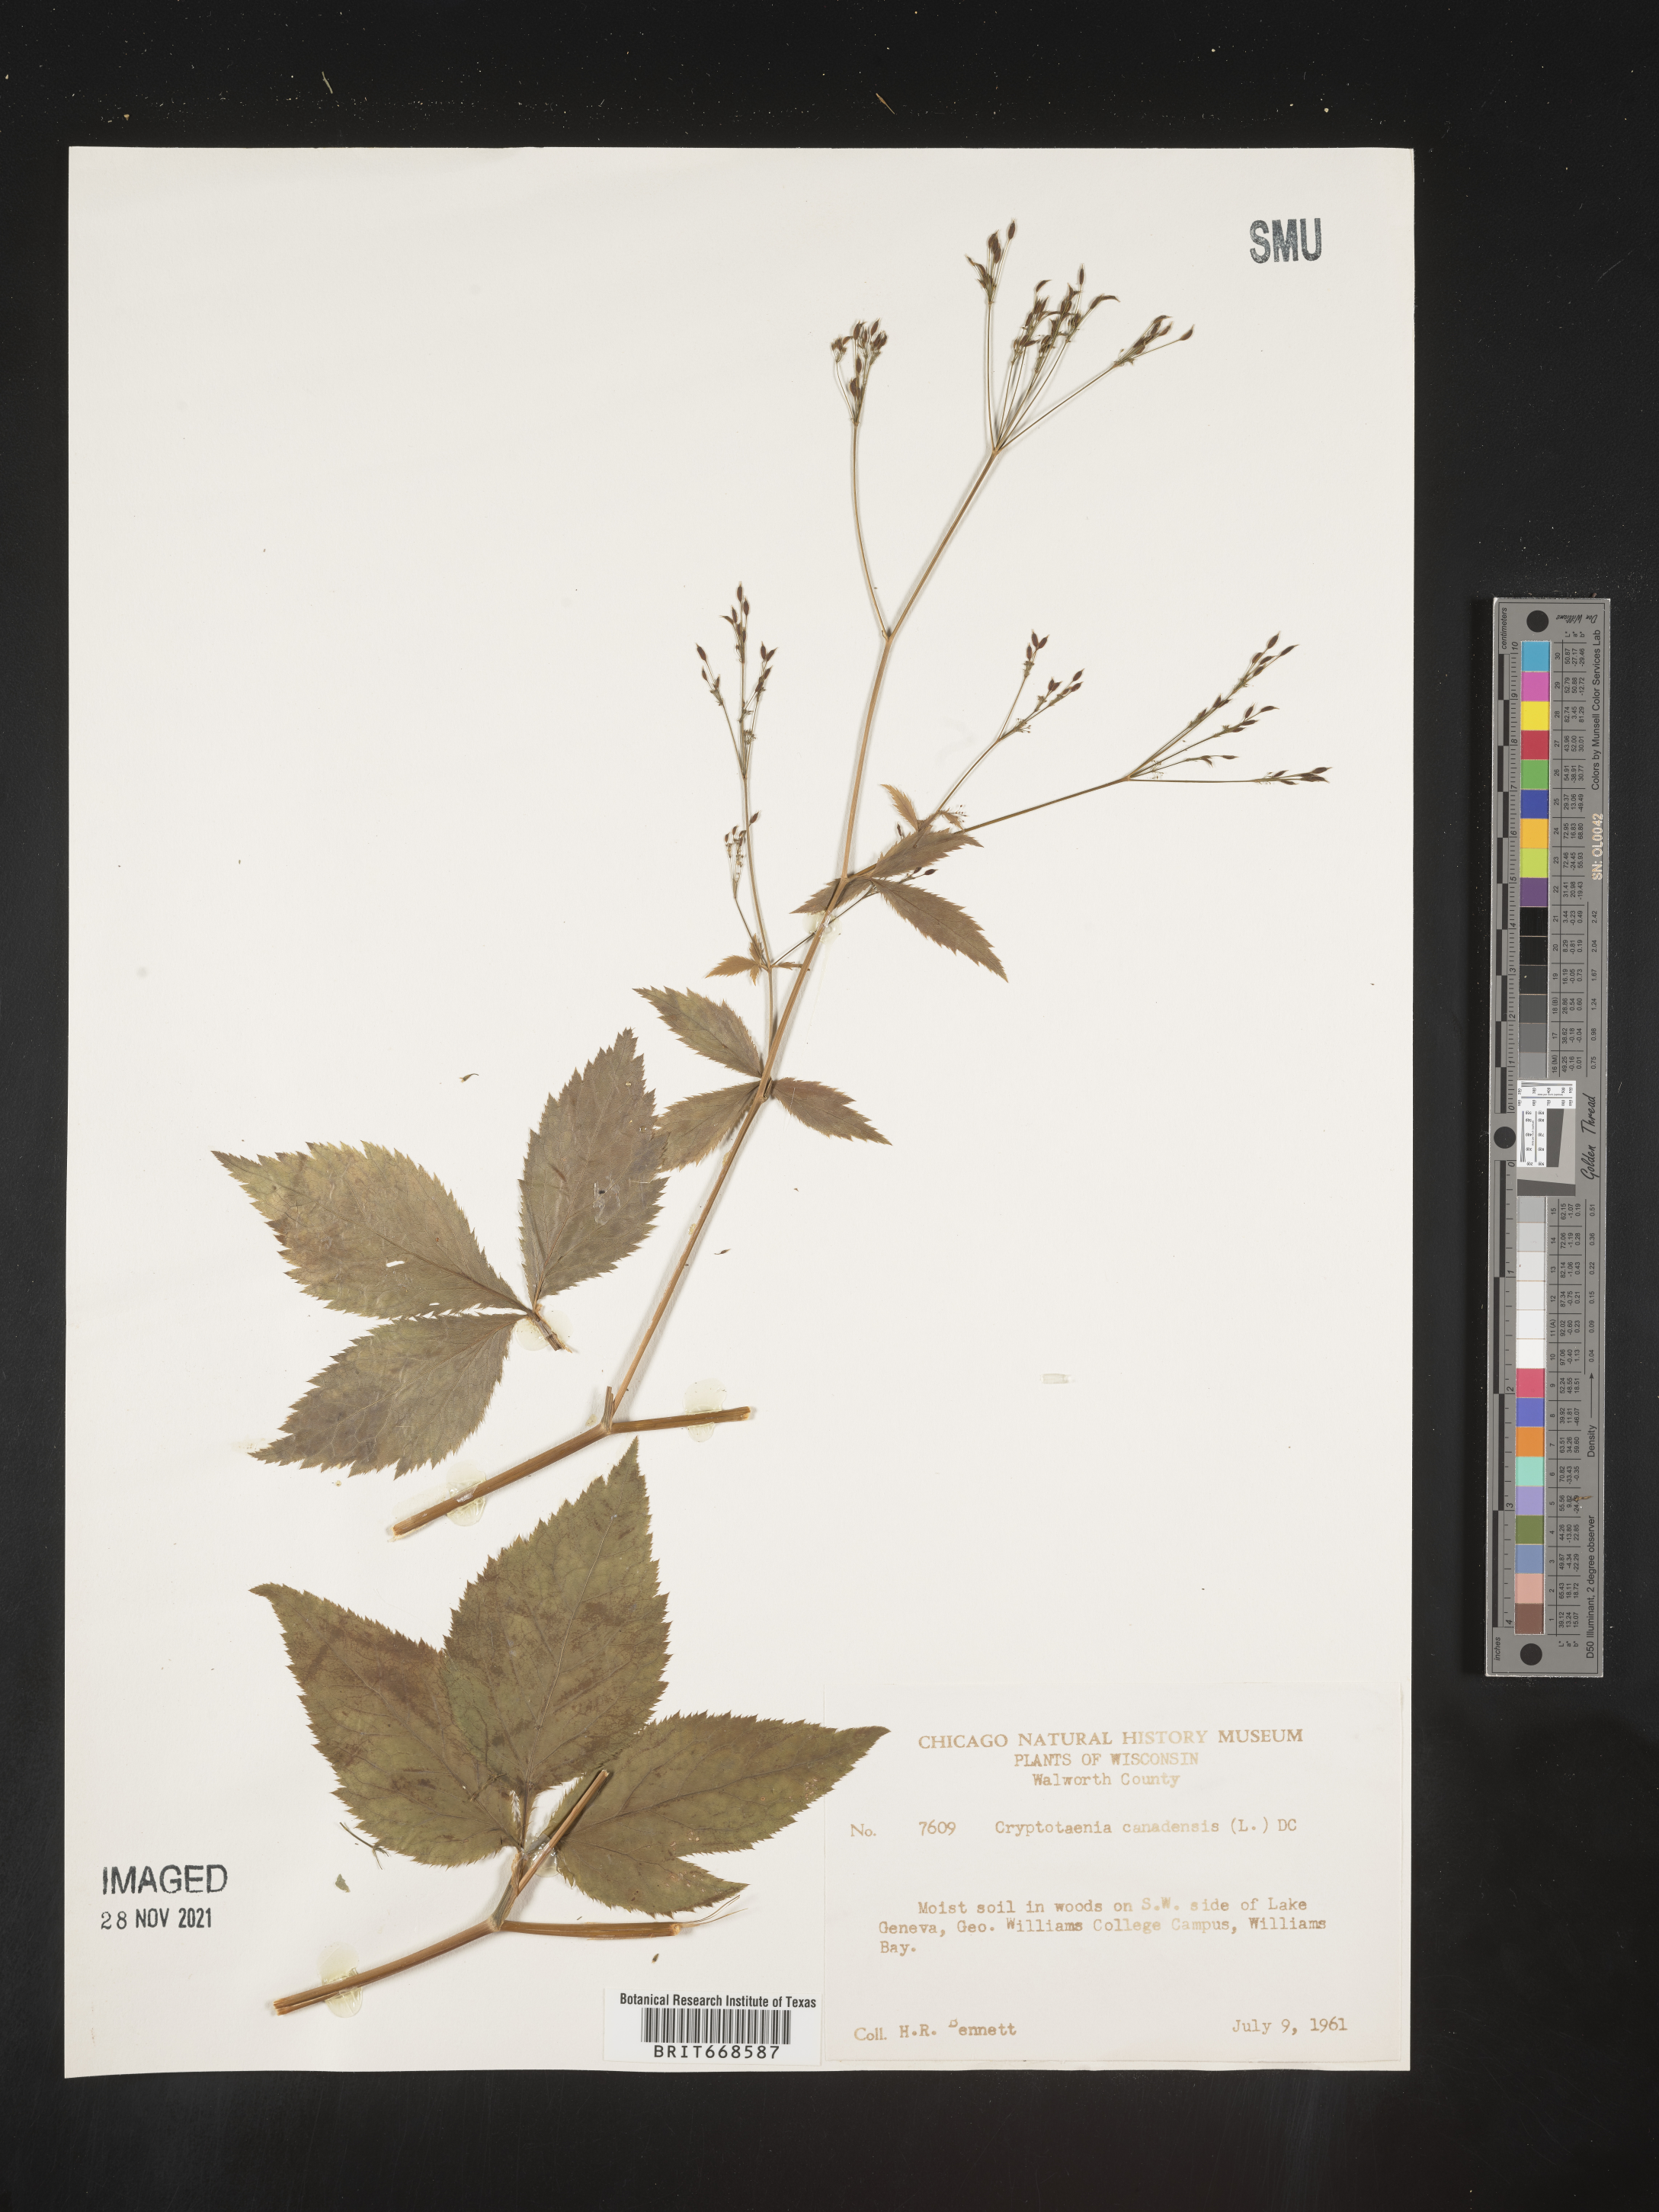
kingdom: Plantae
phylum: Tracheophyta
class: Magnoliopsida
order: Apiales
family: Apiaceae
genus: Cryptotaenia
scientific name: Cryptotaenia canadensis
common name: Honewort
